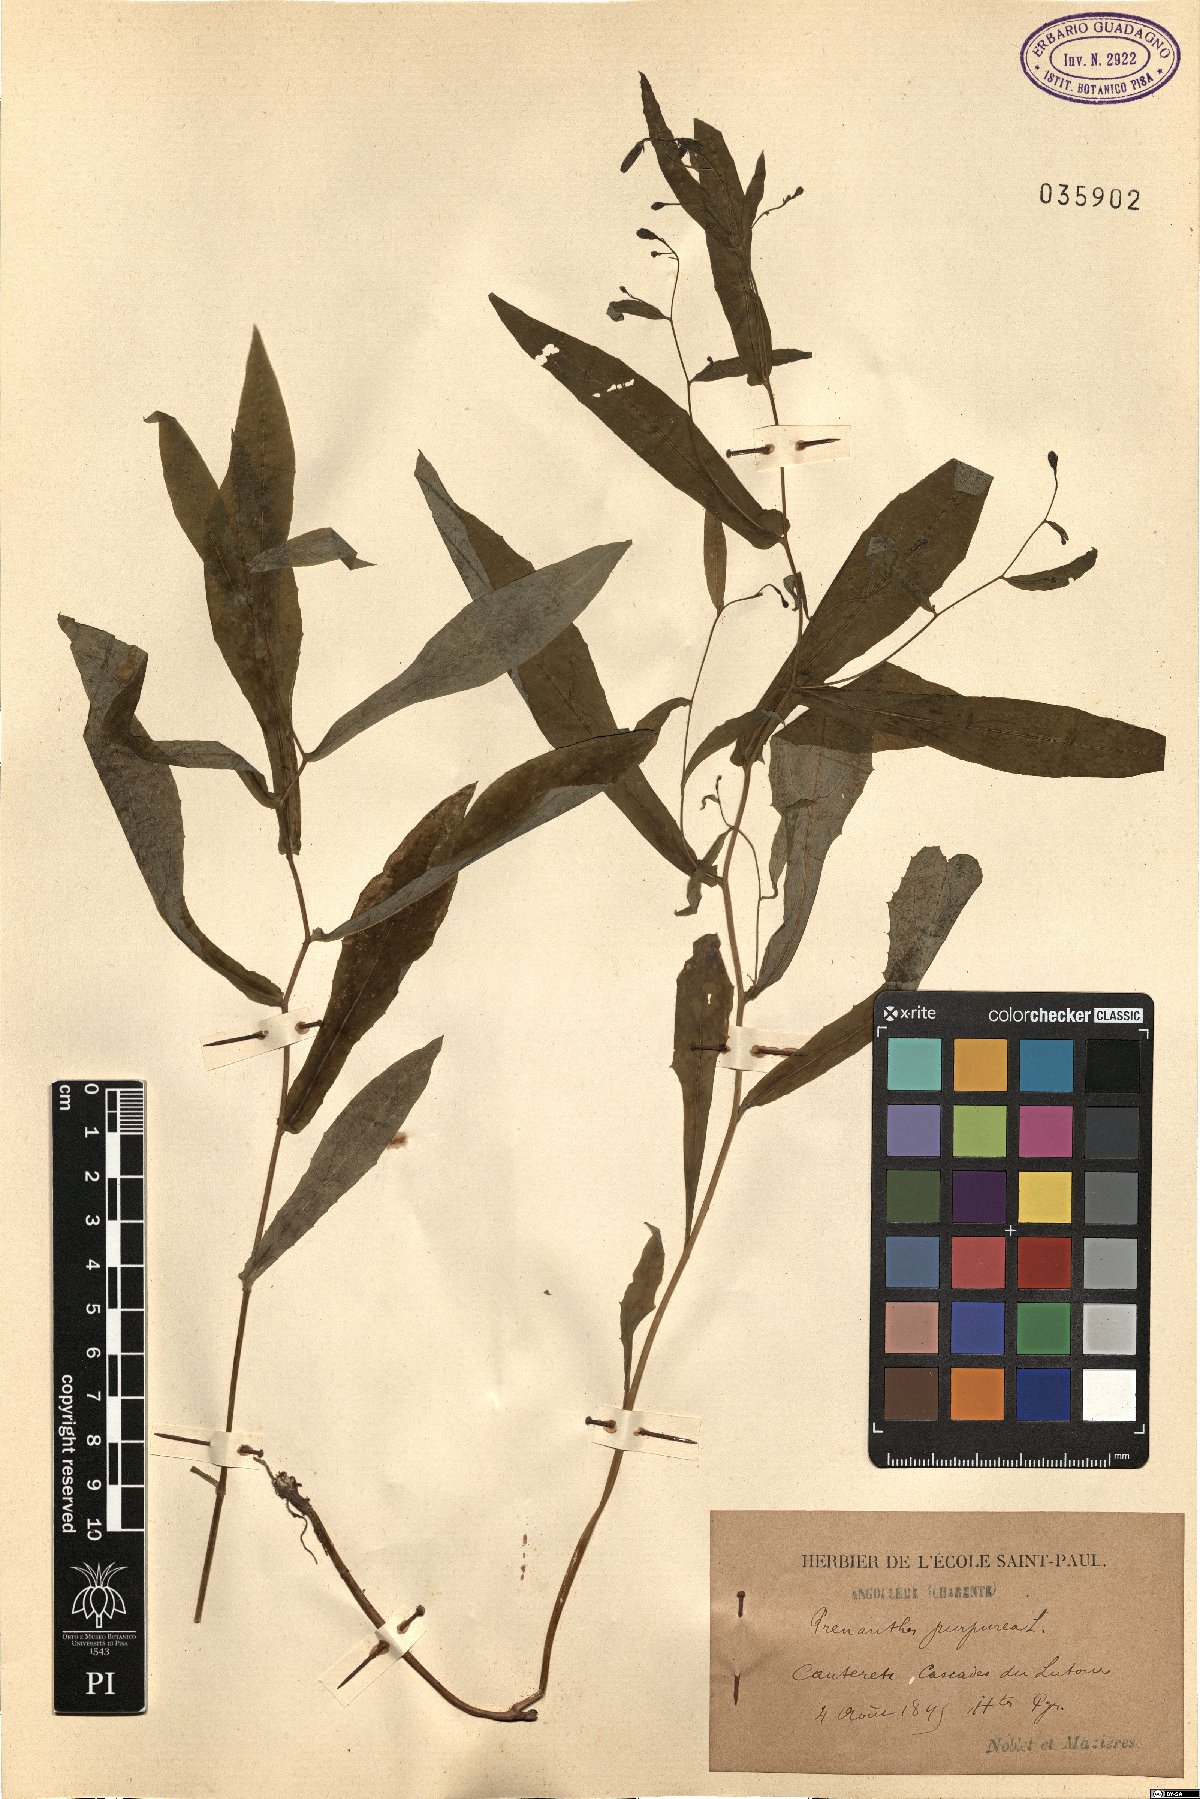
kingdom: Plantae
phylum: Tracheophyta
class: Magnoliopsida
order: Asterales
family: Asteraceae
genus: Prenanthes
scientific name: Prenanthes purpurea
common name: Purple lettuce
